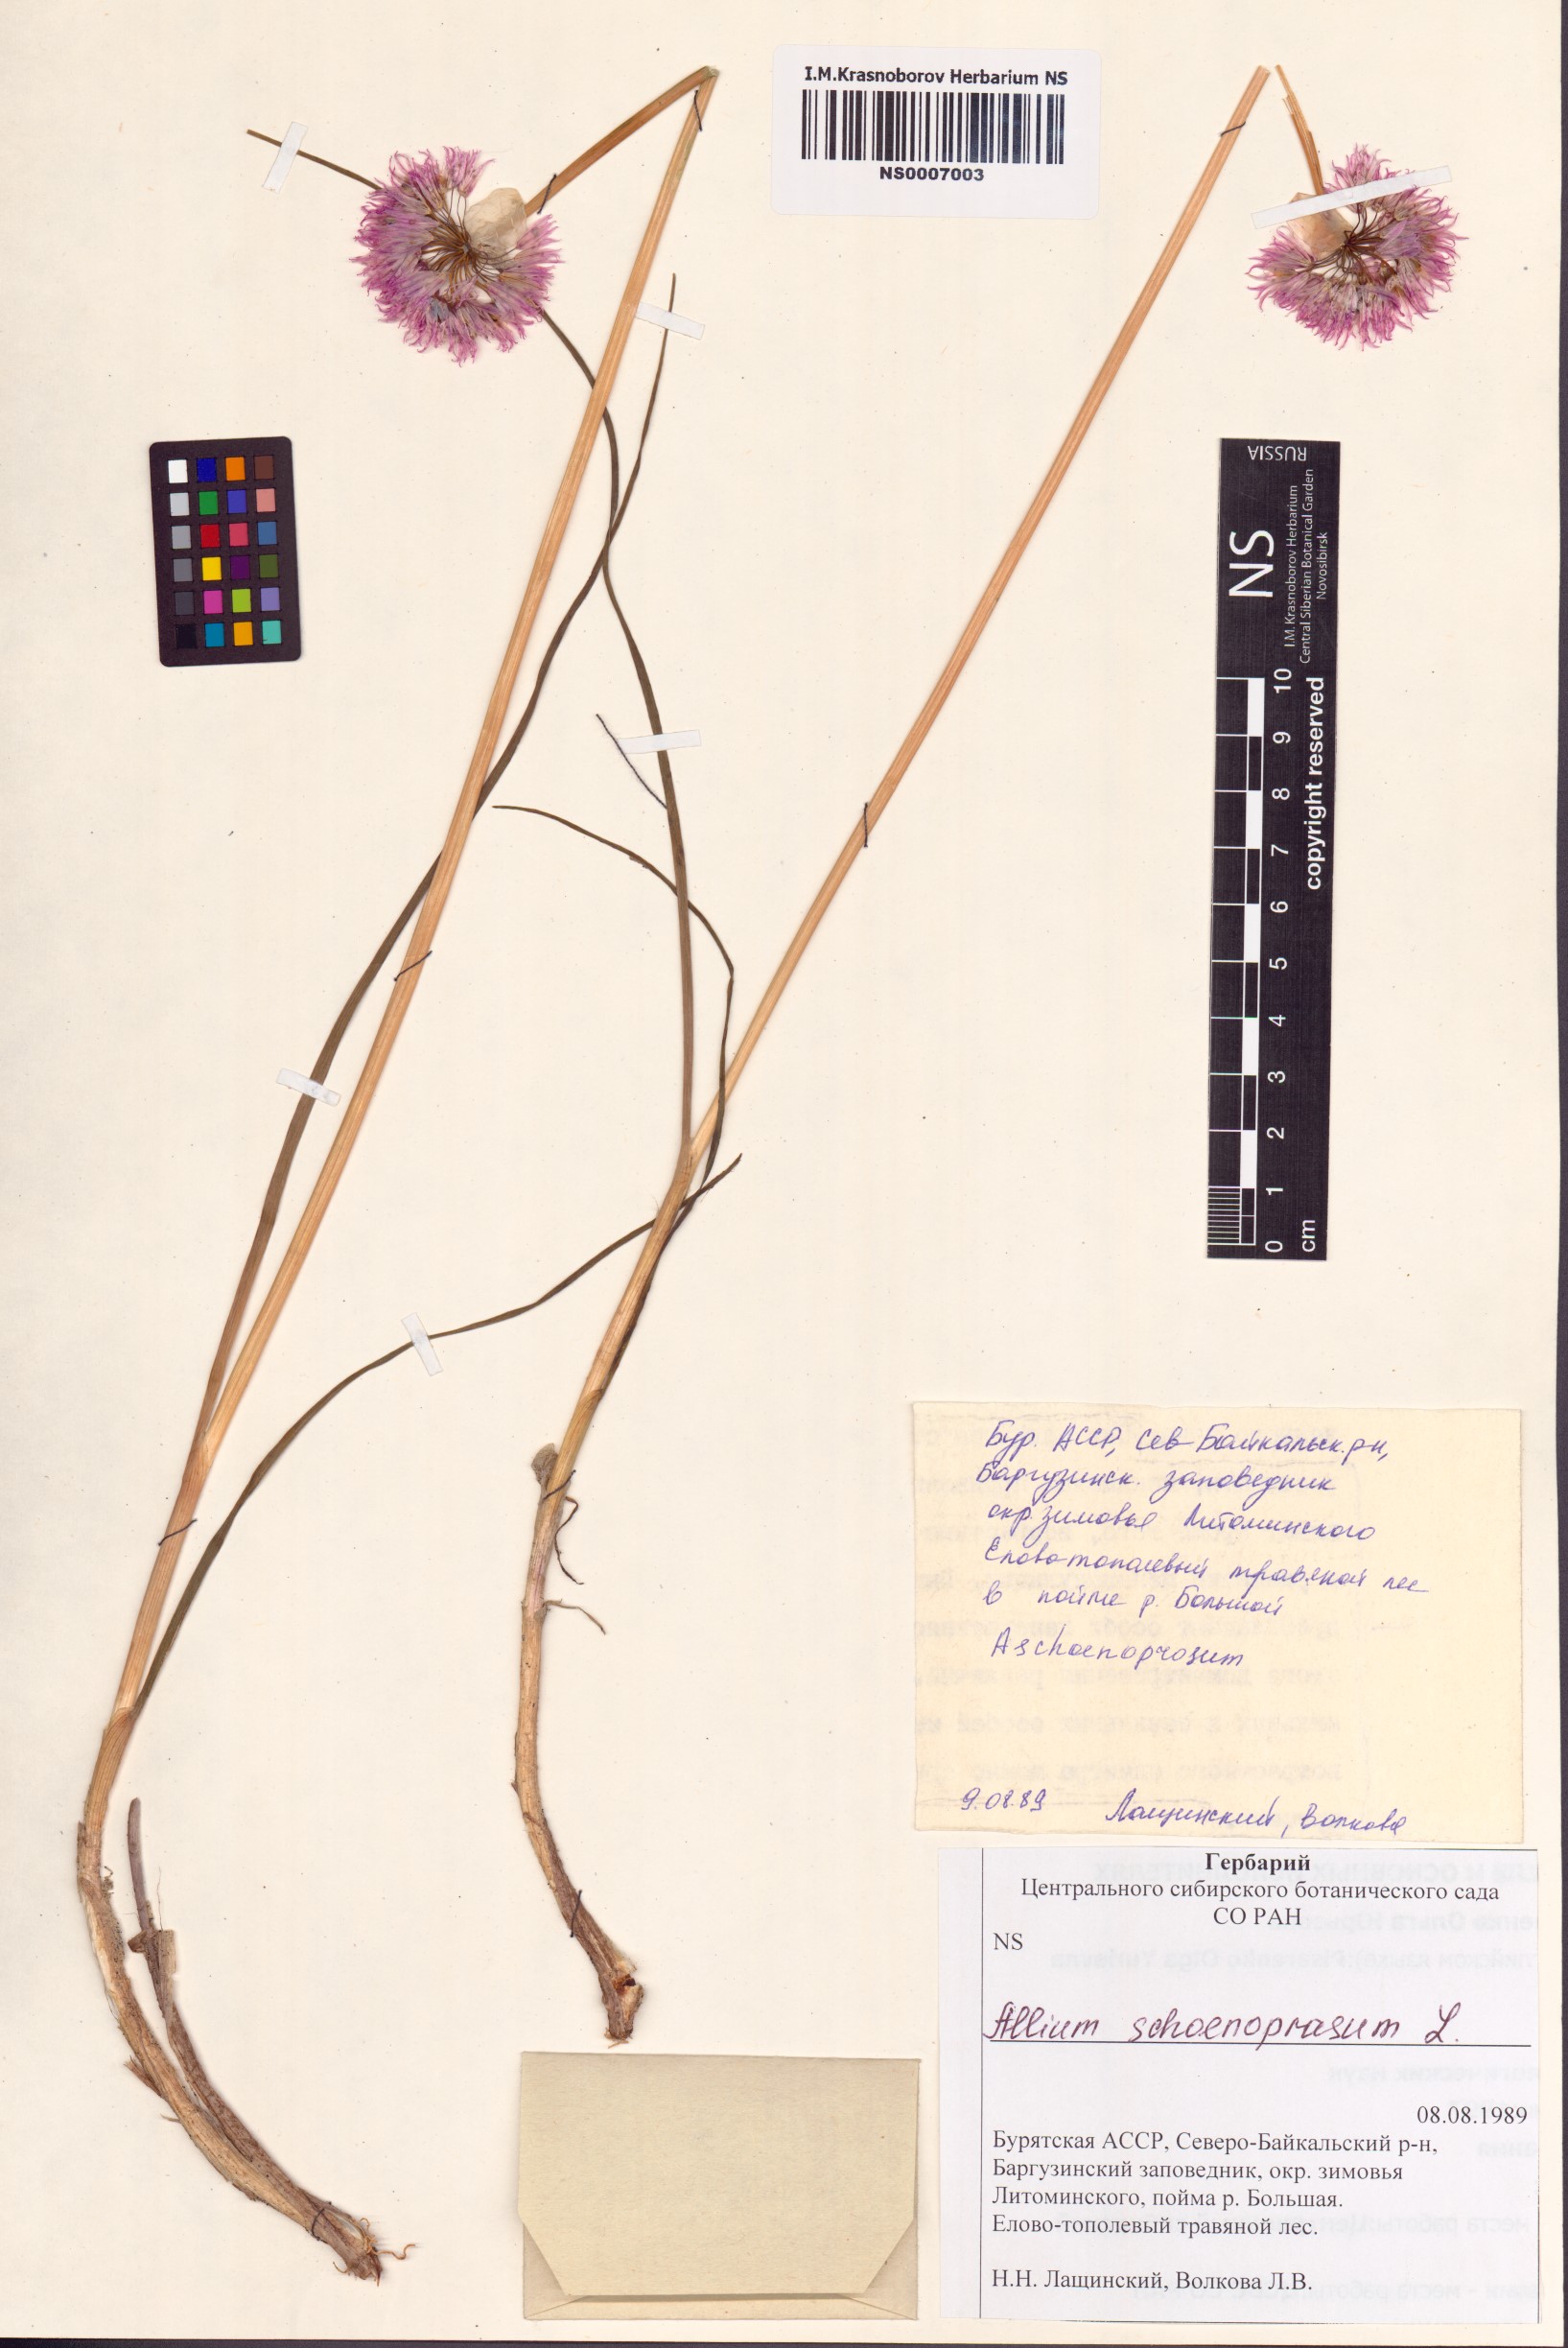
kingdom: Plantae
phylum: Tracheophyta
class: Liliopsida
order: Asparagales
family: Amaryllidaceae
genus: Allium
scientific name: Allium schoenoprasum
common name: Chives
